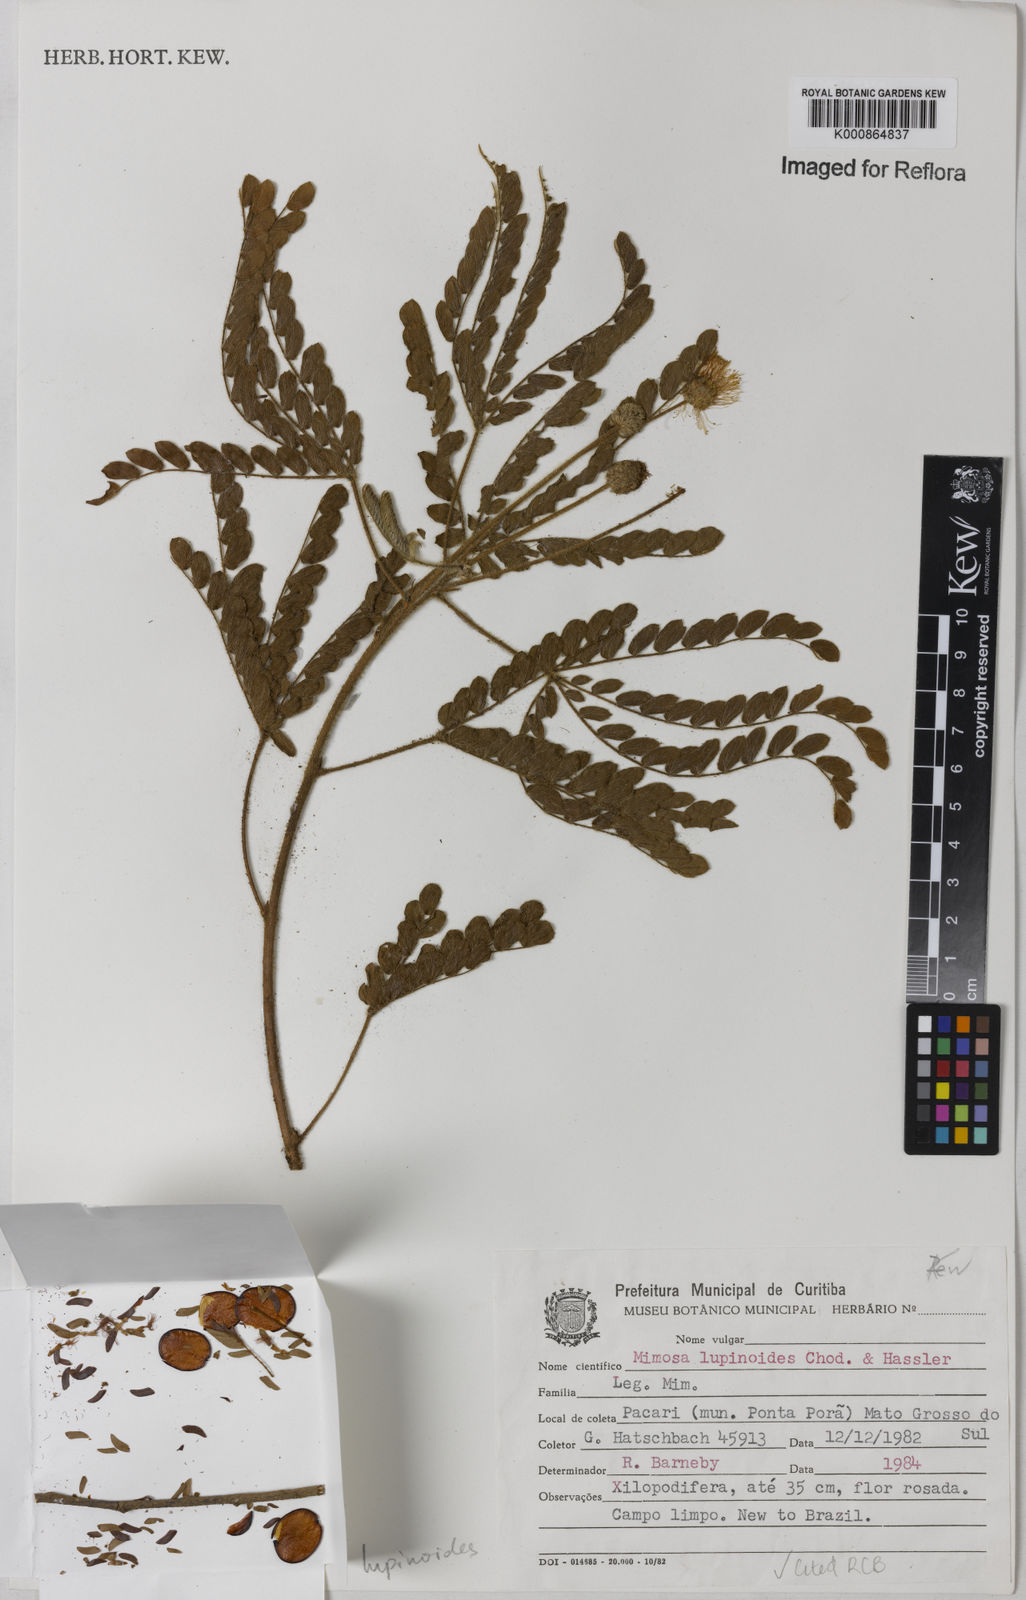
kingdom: Plantae
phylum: Tracheophyta
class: Magnoliopsida
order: Fabales
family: Fabaceae
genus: Mimosa
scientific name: Mimosa lupinoides
